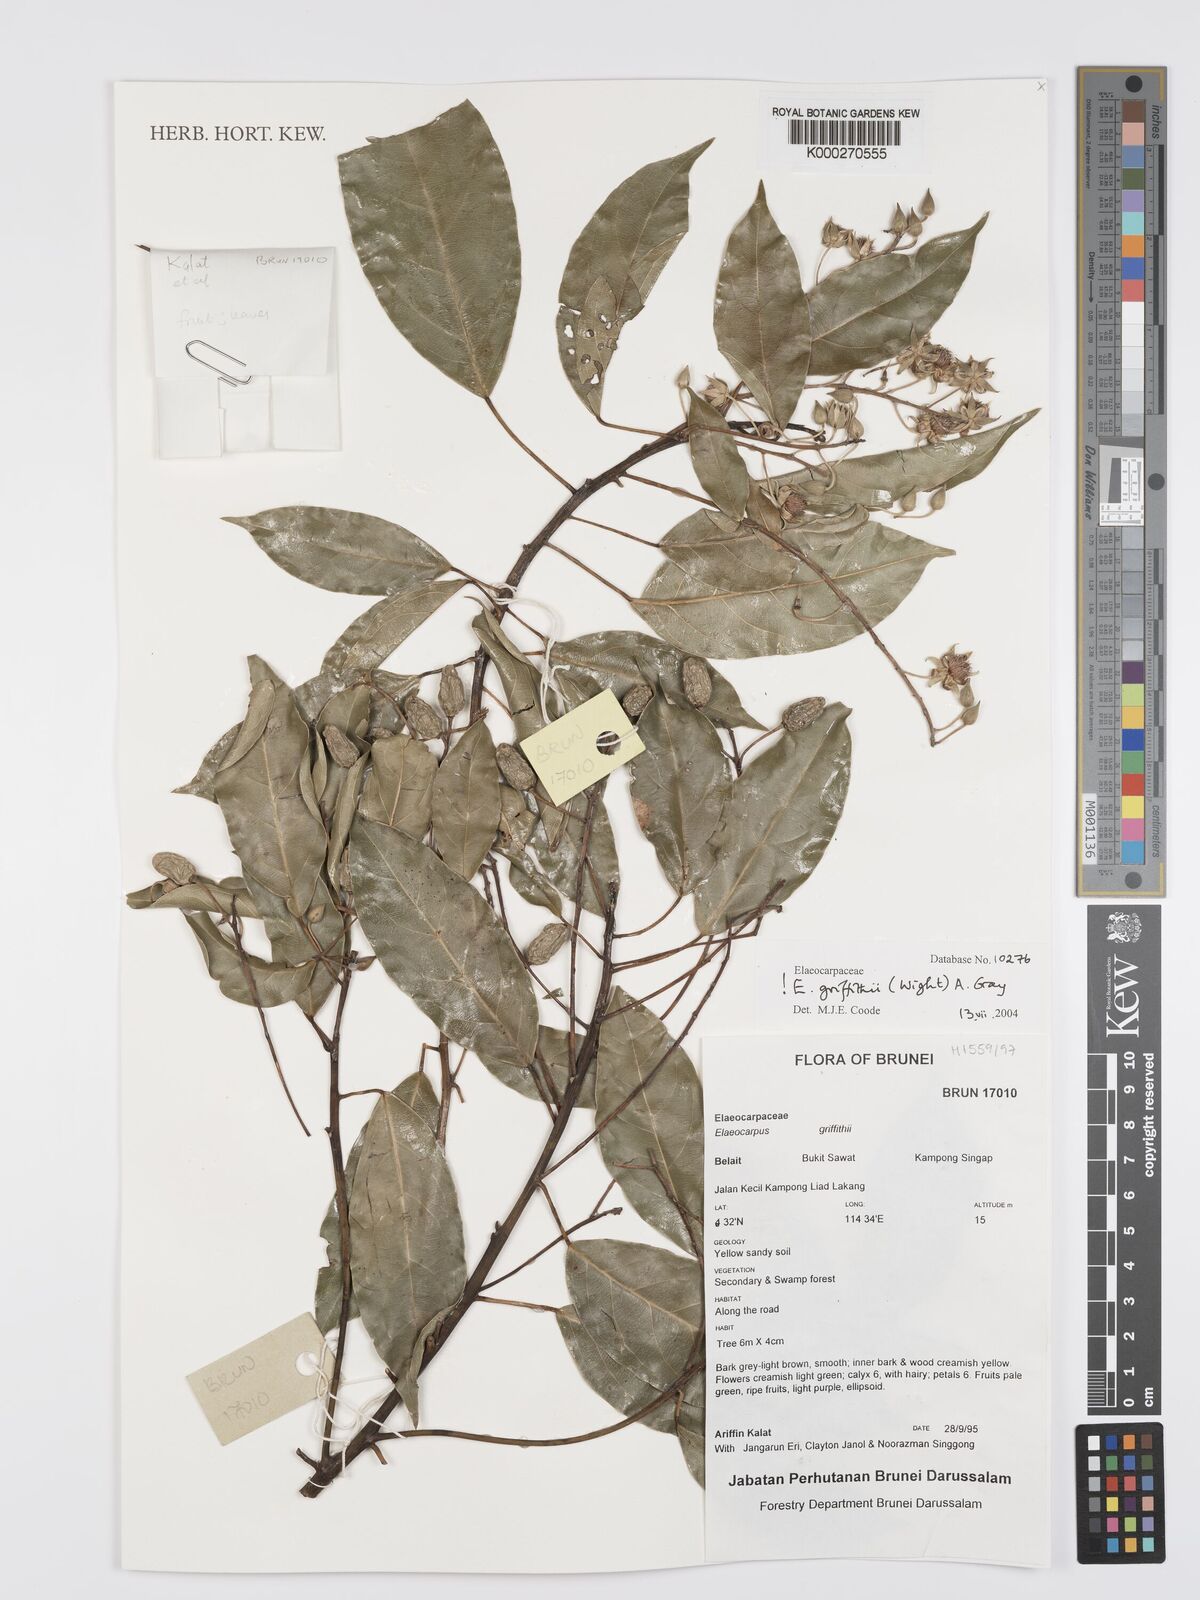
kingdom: Plantae
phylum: Tracheophyta
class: Magnoliopsida
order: Oxalidales
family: Elaeocarpaceae
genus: Elaeocarpus
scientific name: Elaeocarpus
